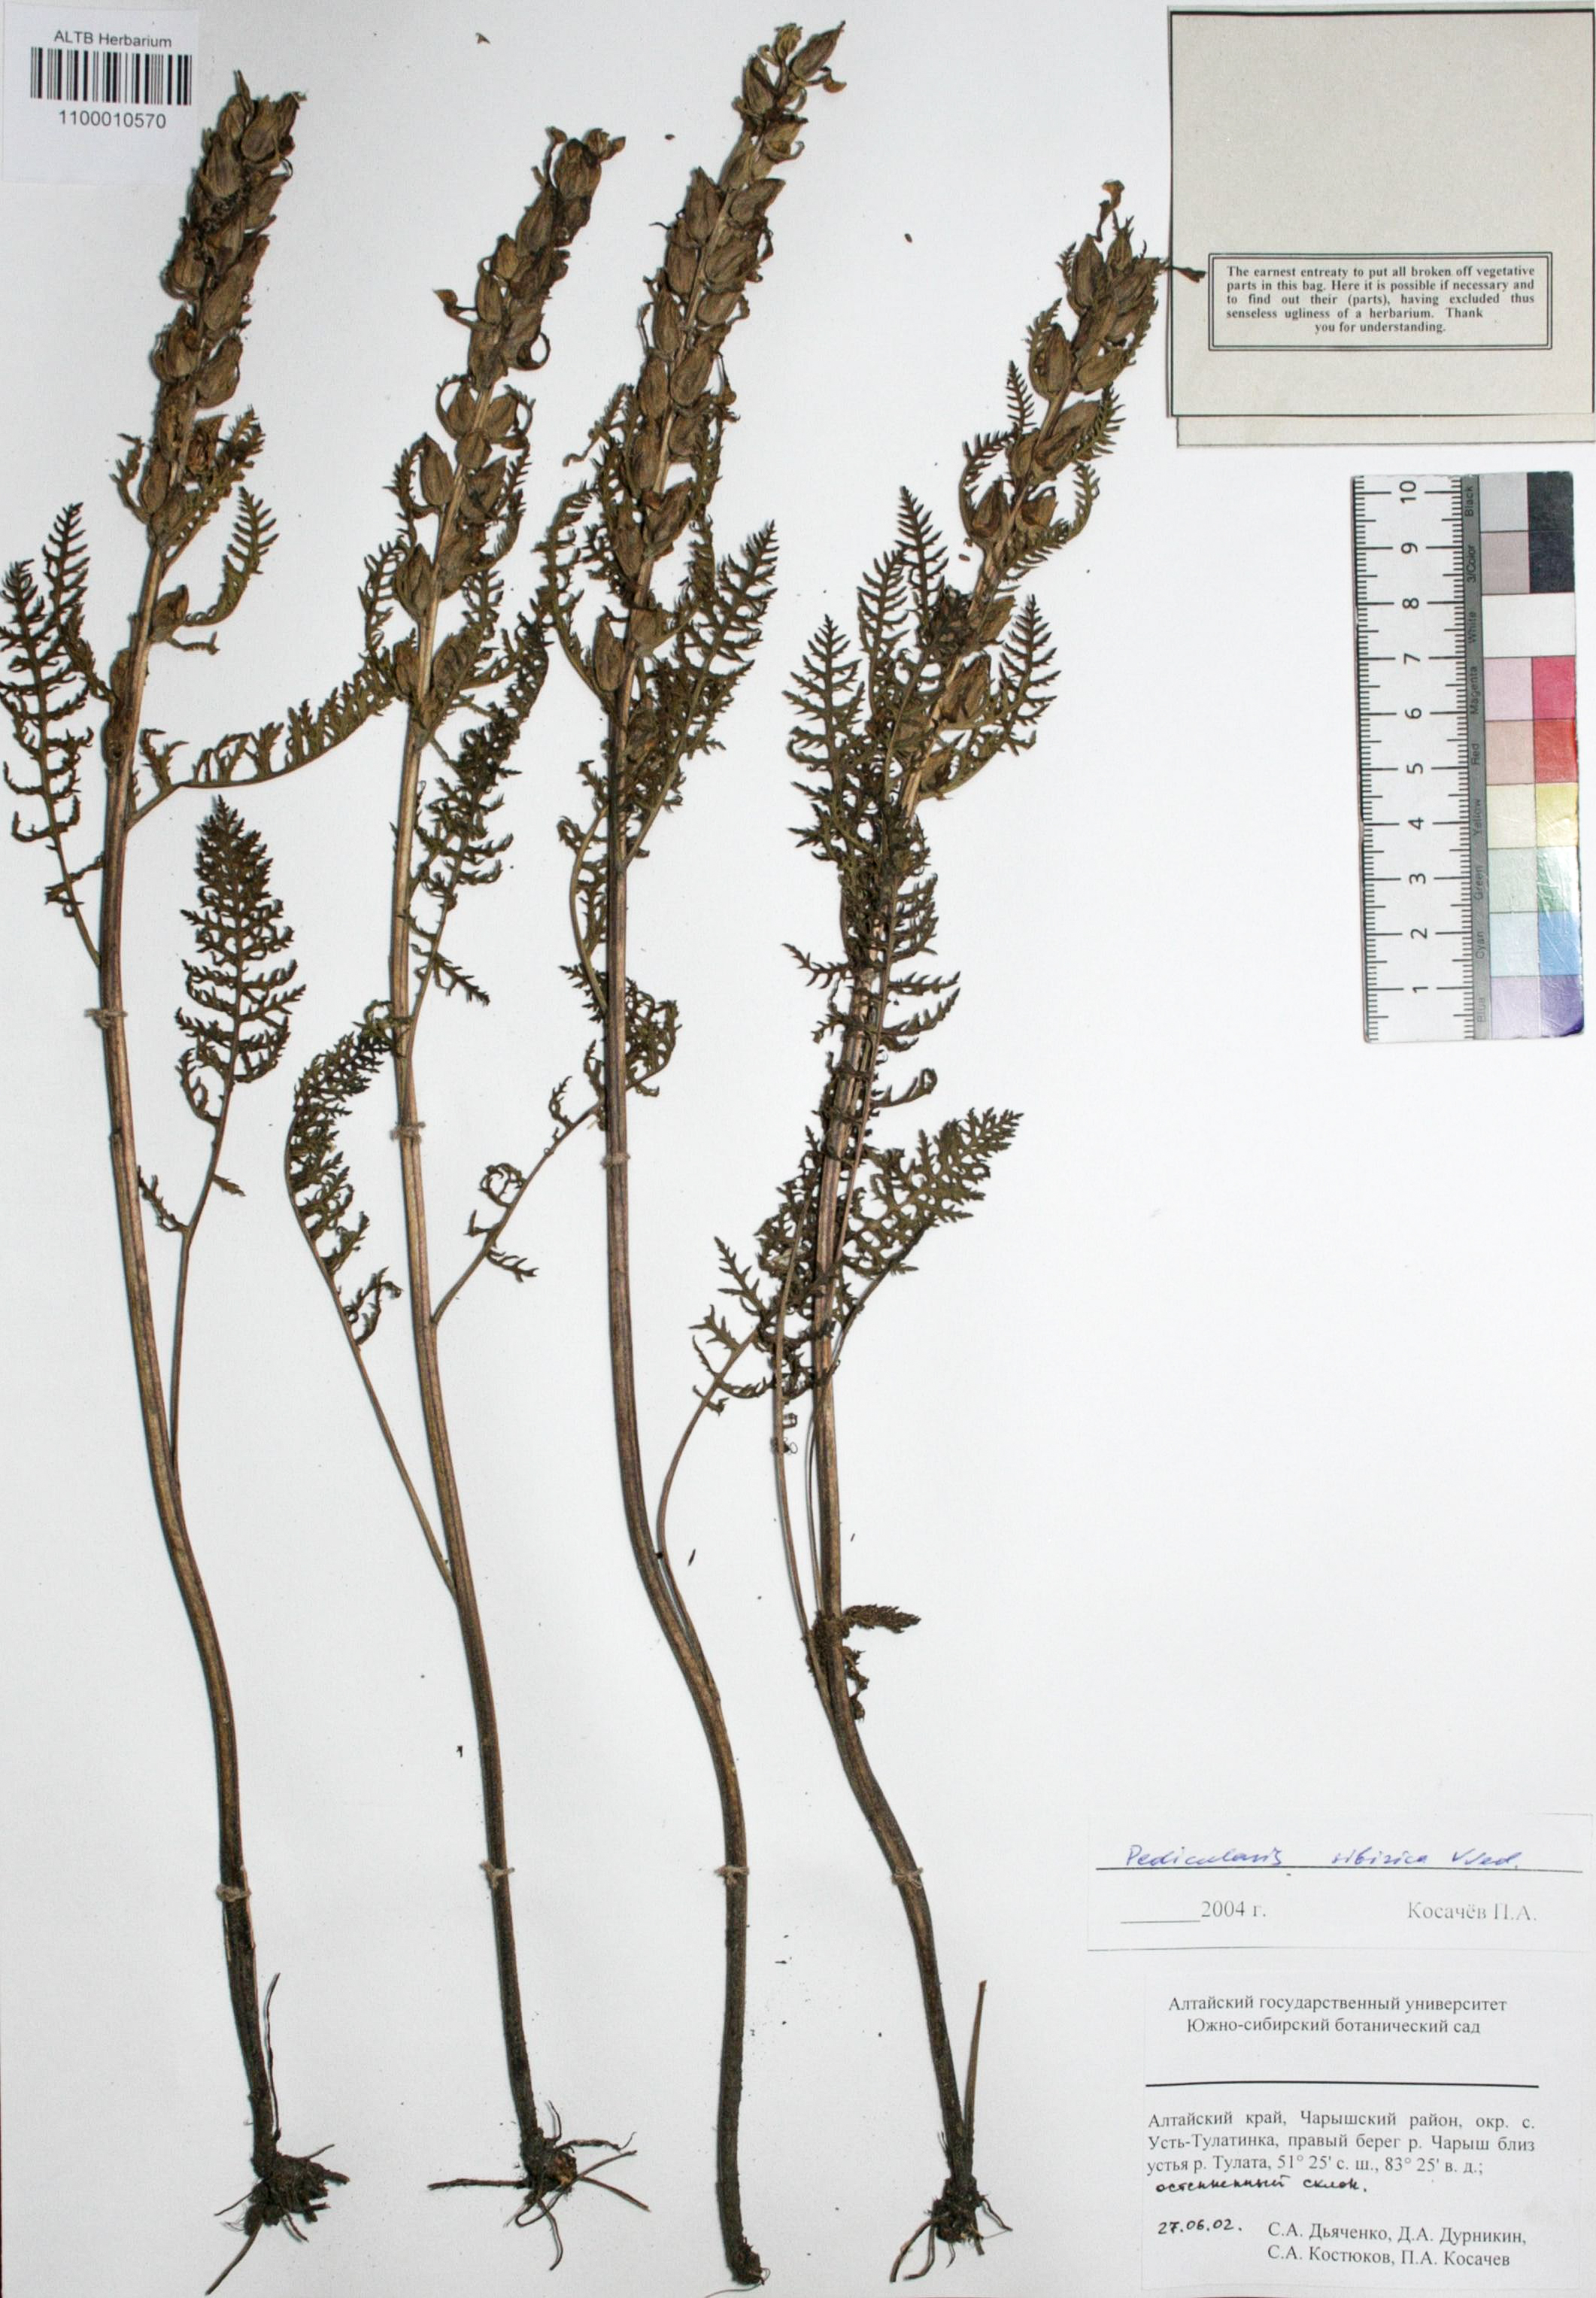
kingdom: Plantae
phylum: Tracheophyta
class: Magnoliopsida
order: Lamiales
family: Orobanchaceae
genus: Pedicularis
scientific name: Pedicularis sibirica
